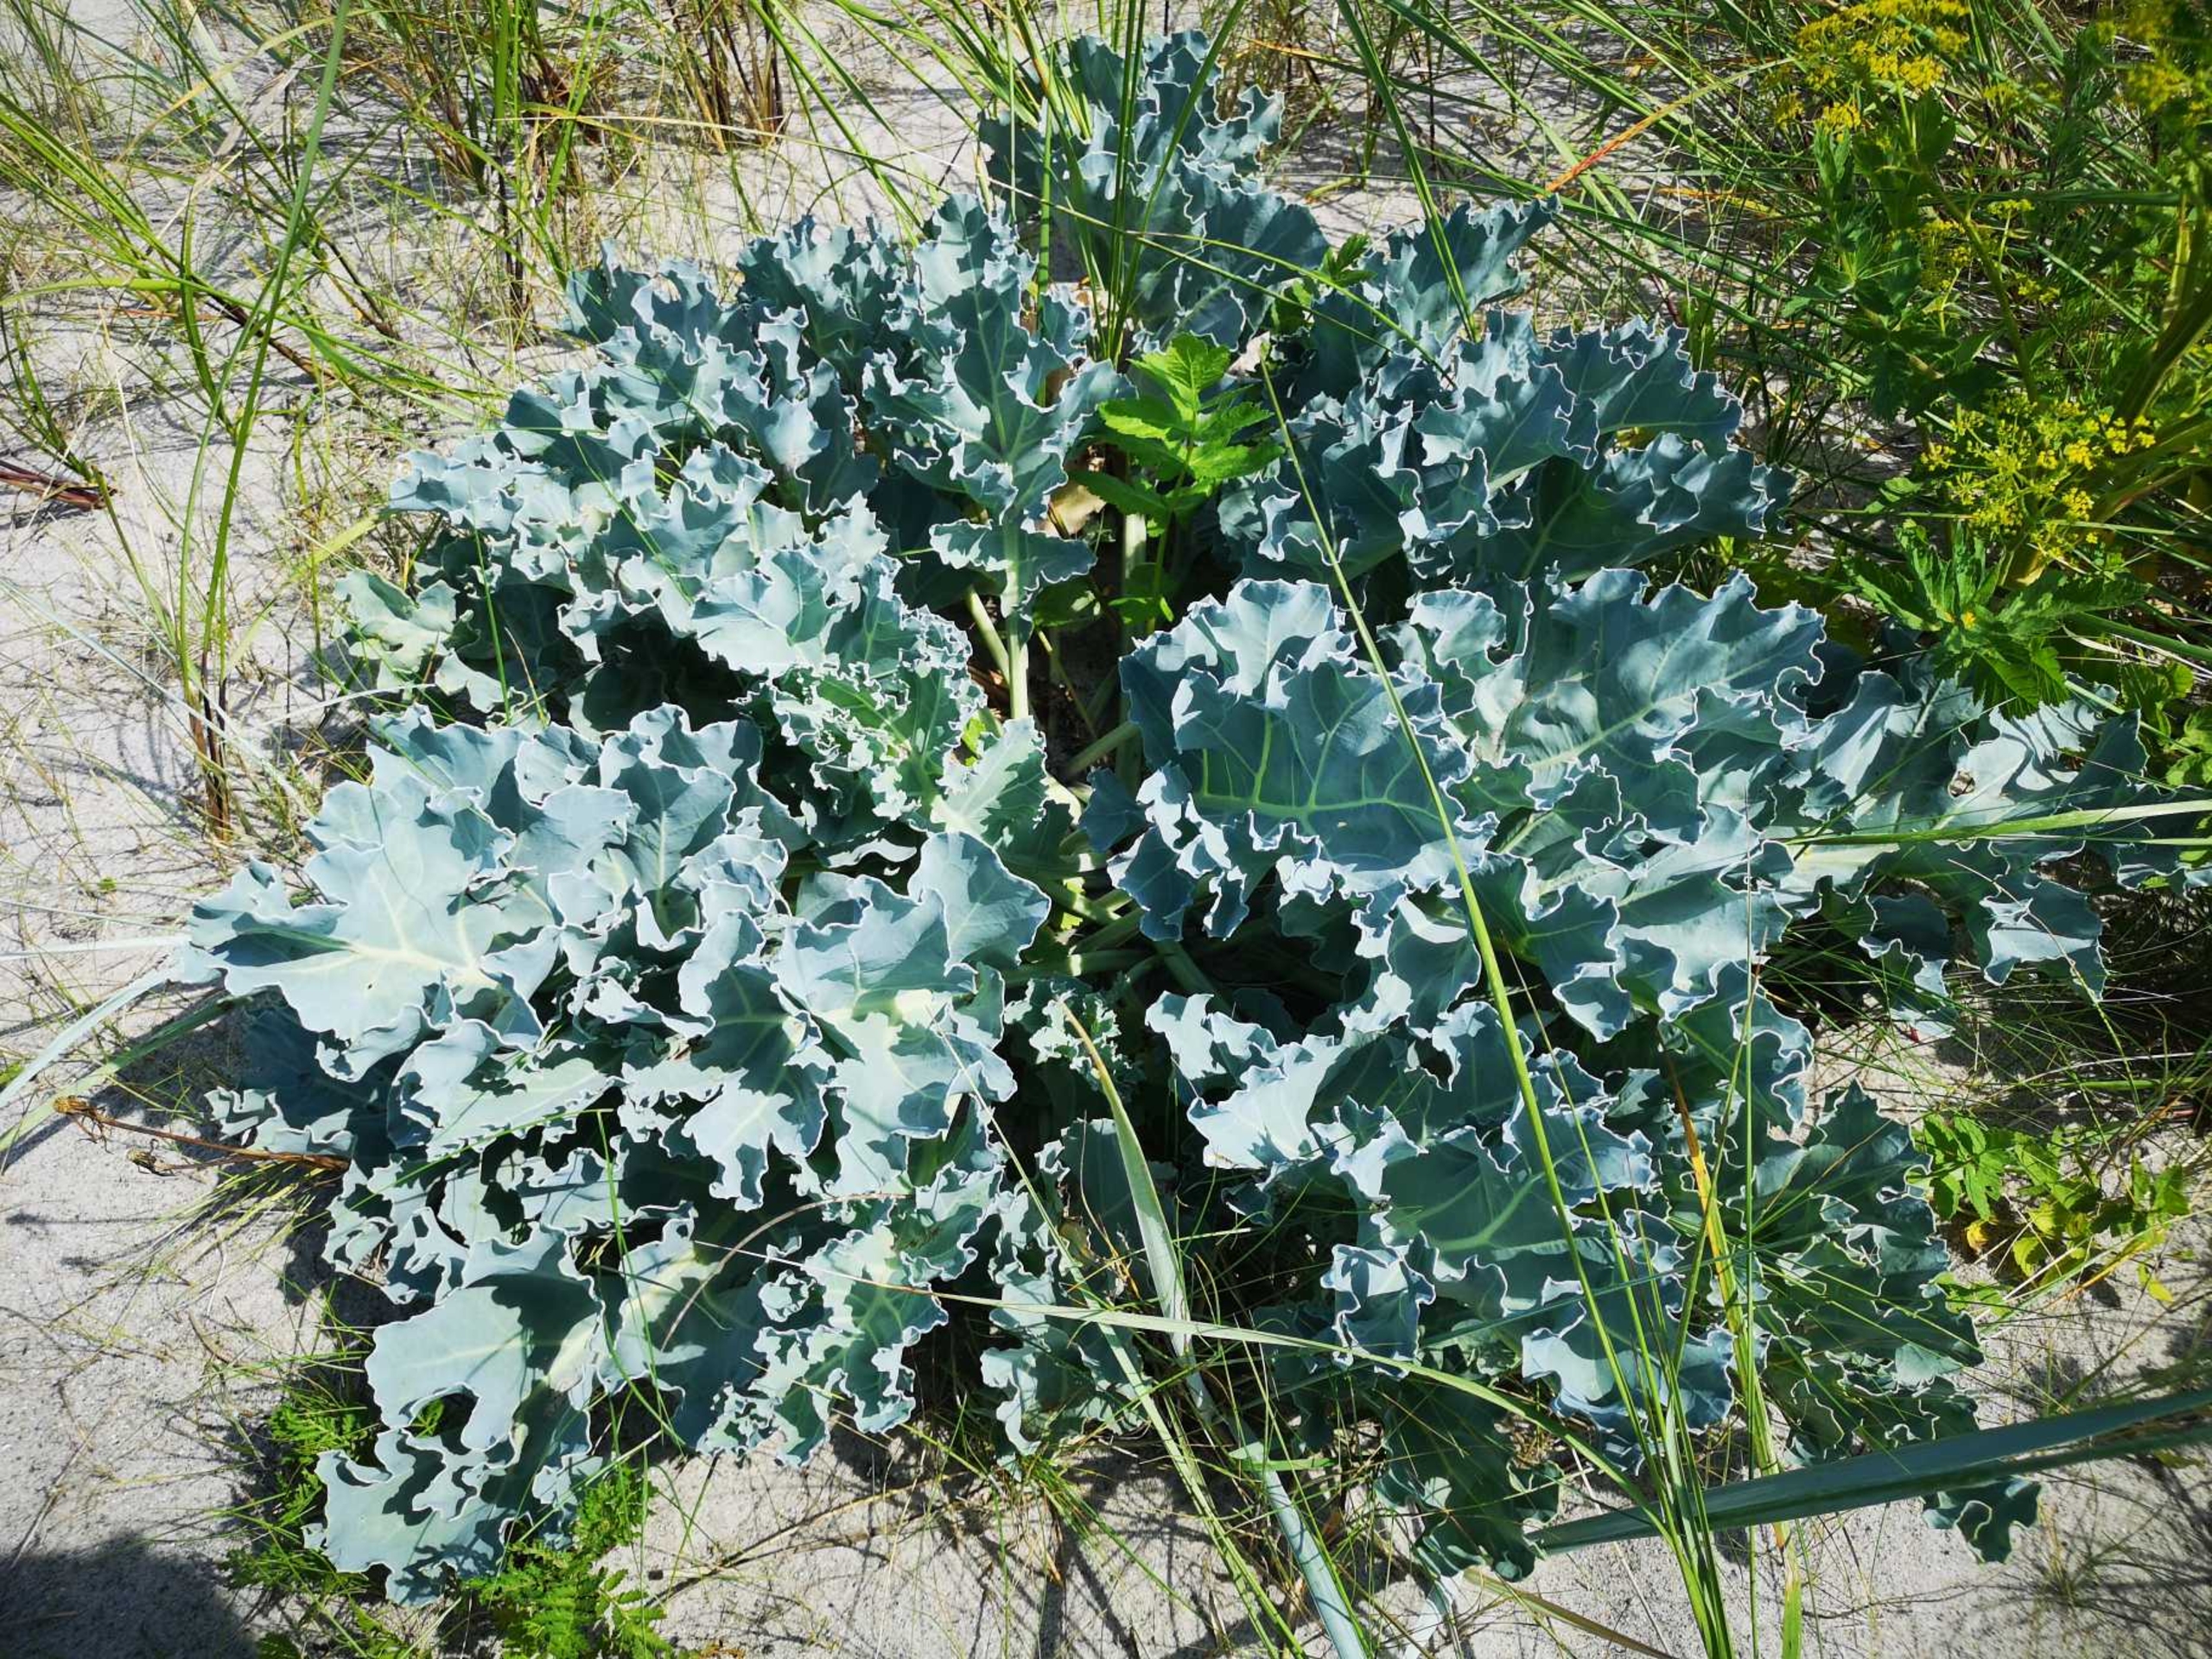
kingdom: Plantae
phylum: Tracheophyta
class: Magnoliopsida
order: Brassicales
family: Brassicaceae
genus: Crambe
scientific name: Crambe maritima
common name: Strandkål
